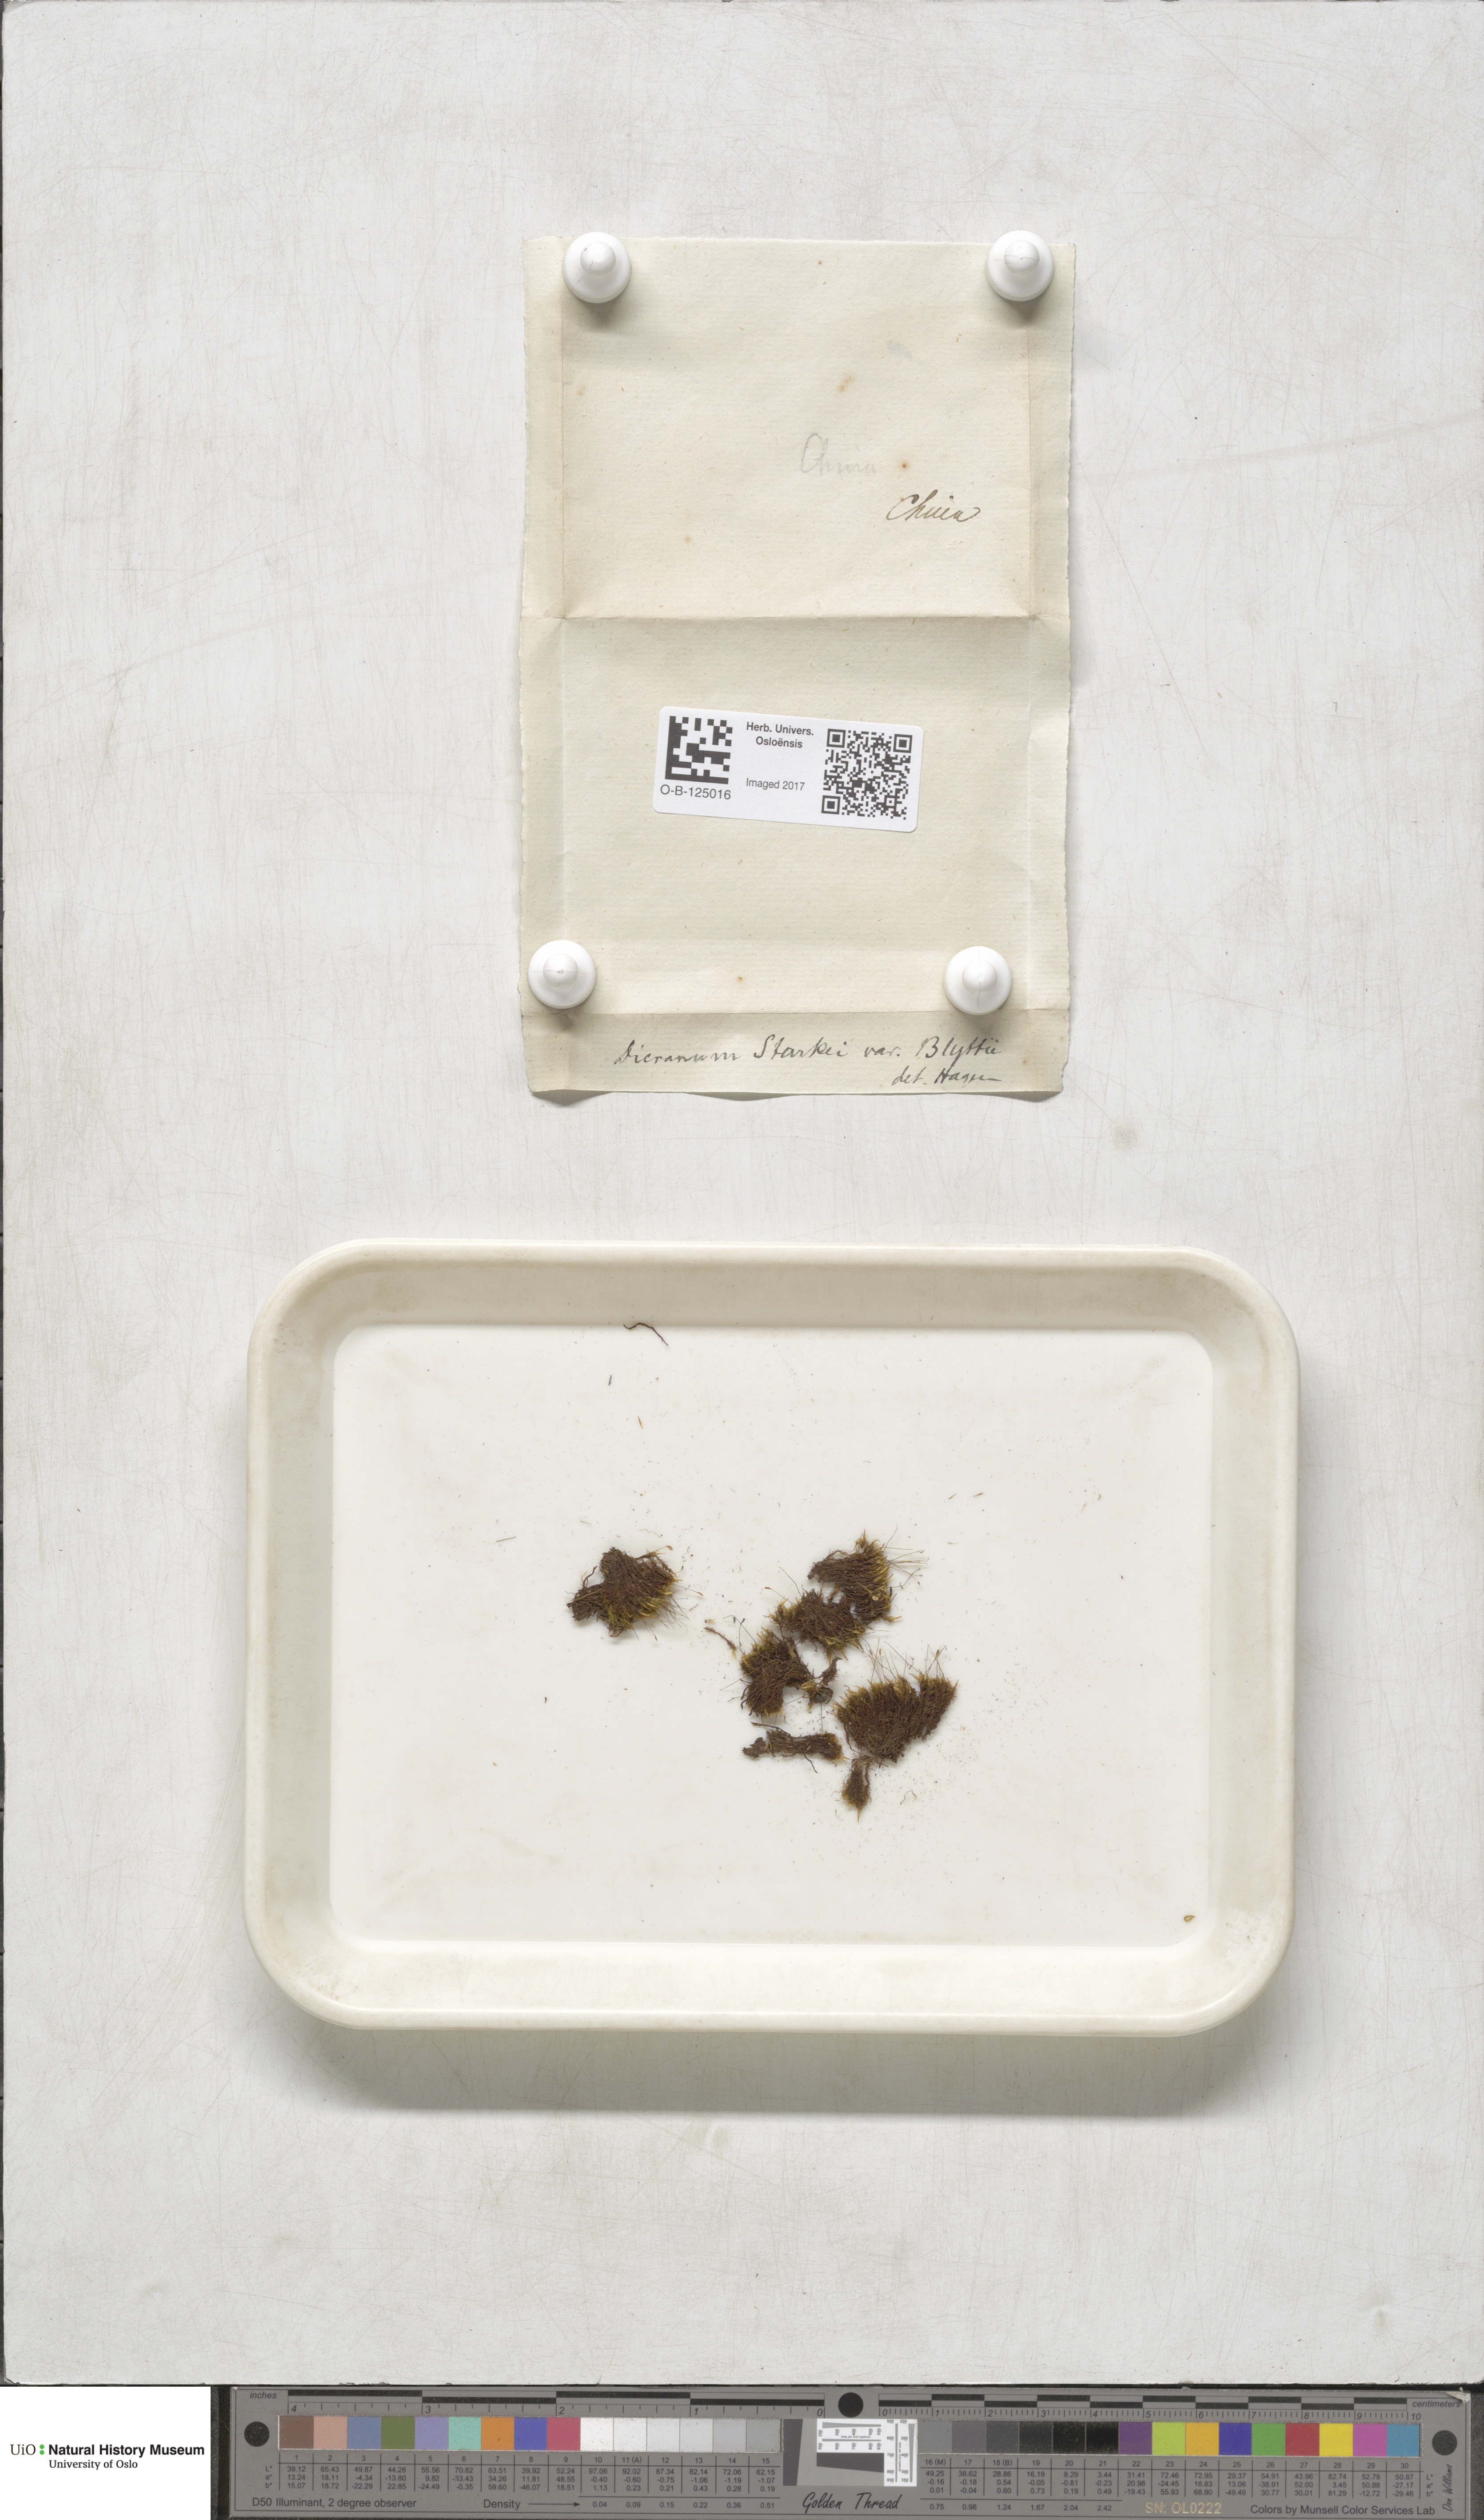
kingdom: Plantae
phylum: Bryophyta
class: Bryopsida
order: Dicranales
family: Rhabdoweisiaceae
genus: Arctoa
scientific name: Arctoa blyttii
